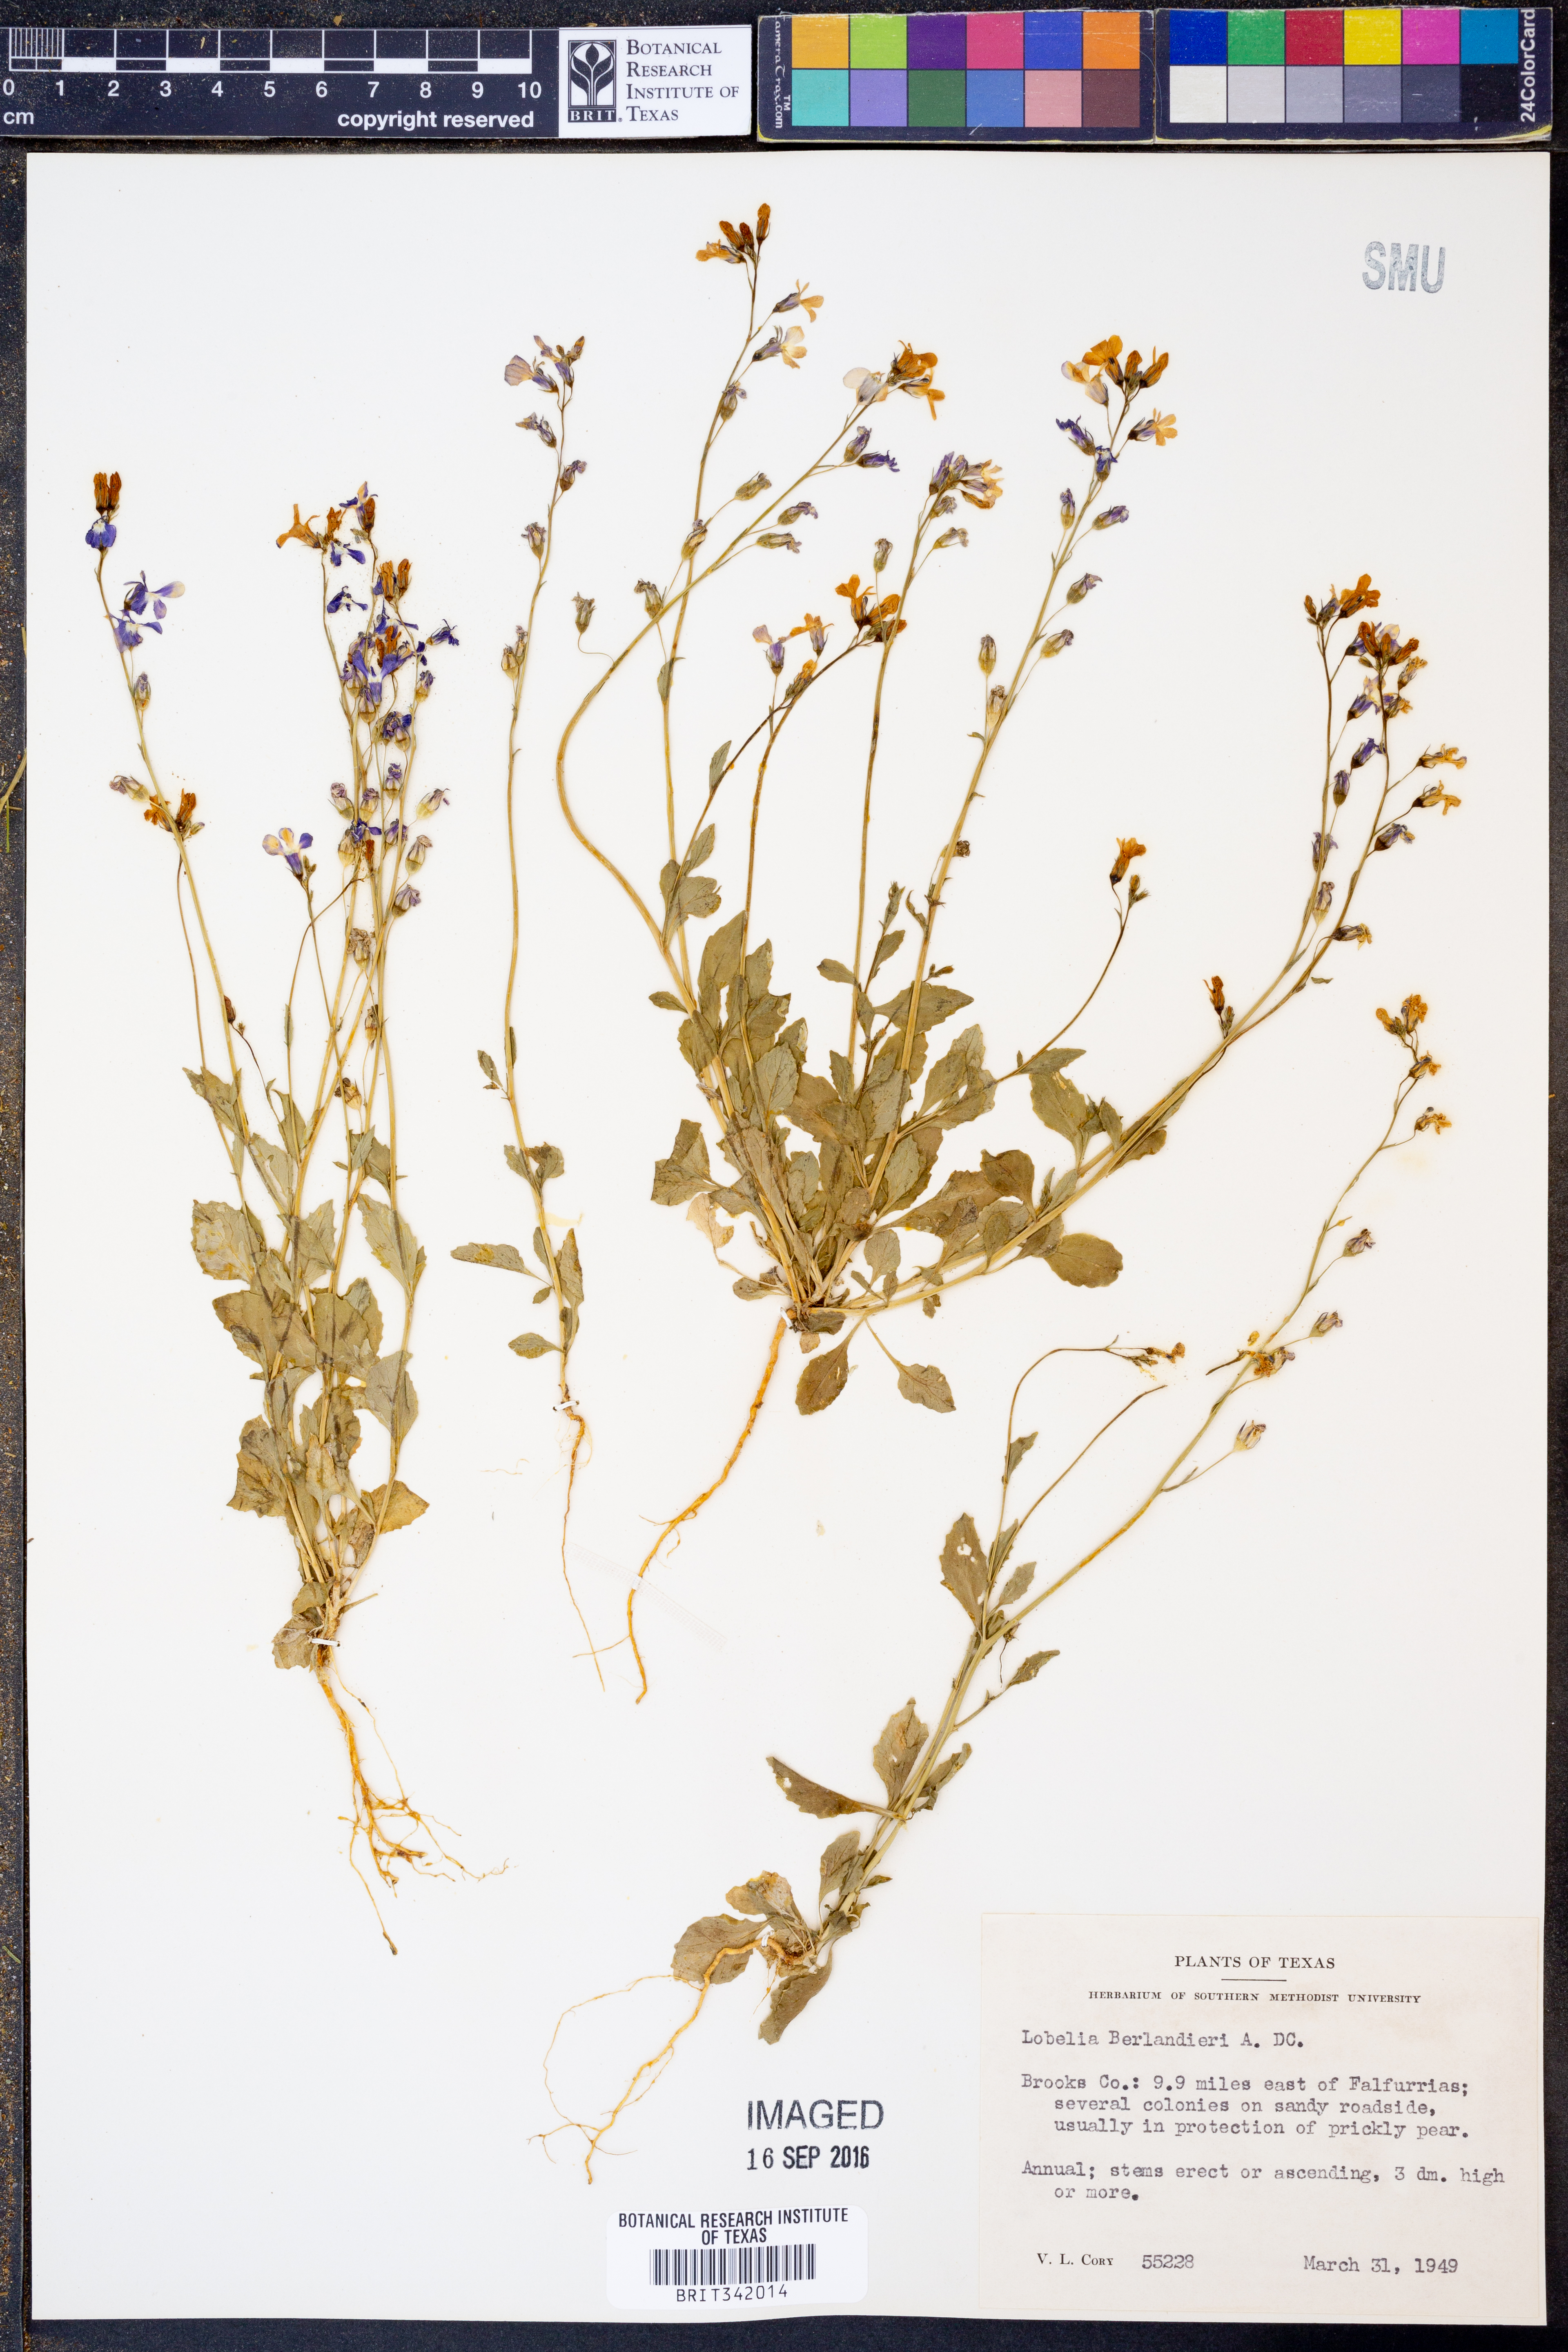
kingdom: Plantae
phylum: Tracheophyta
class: Magnoliopsida
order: Asterales
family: Campanulaceae
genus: Lobelia
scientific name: Lobelia berlandieri
